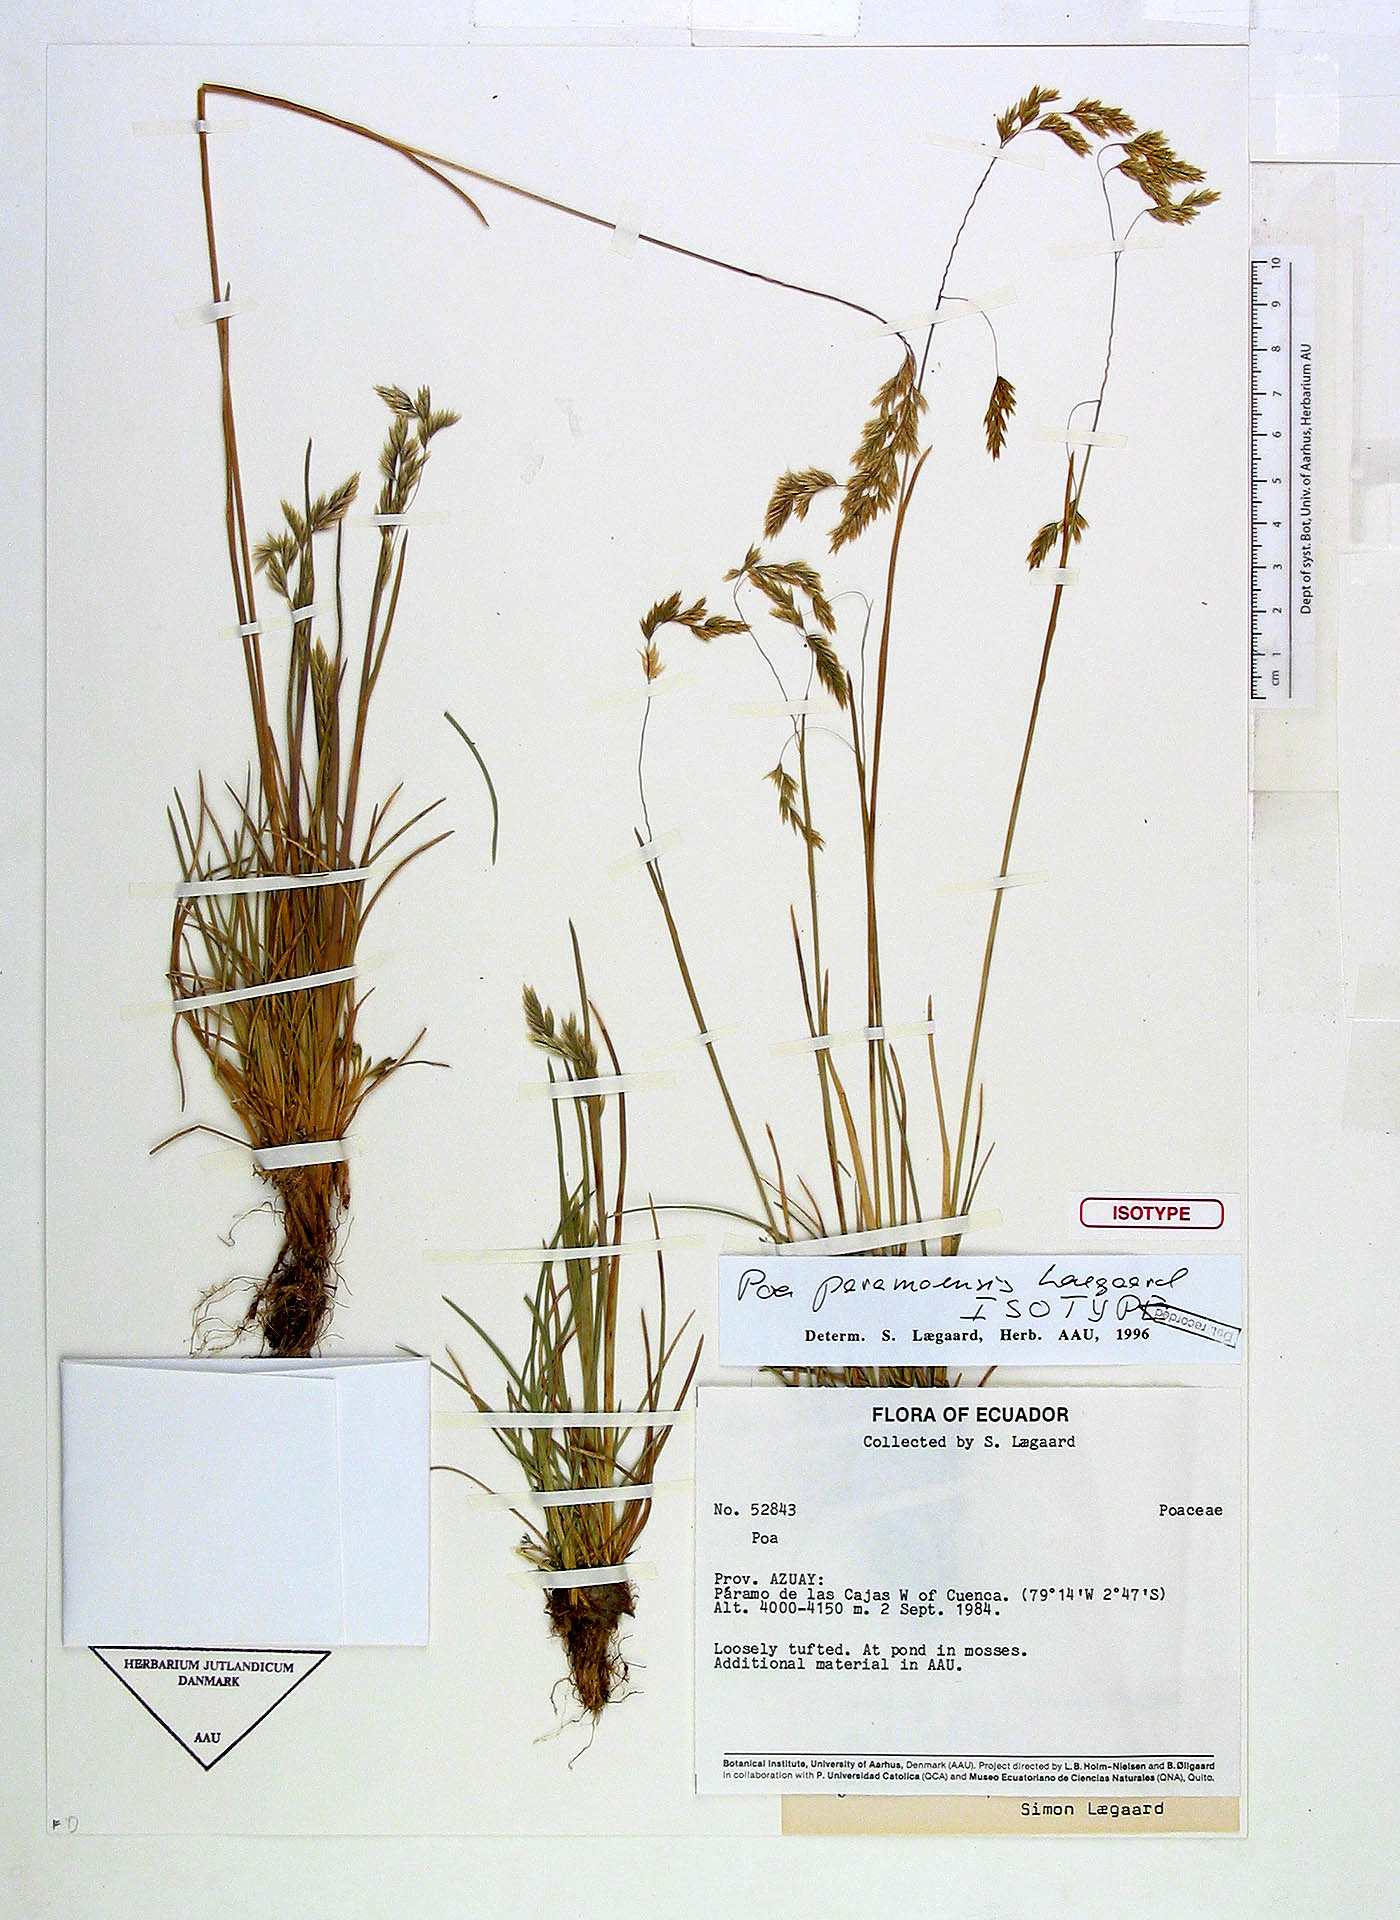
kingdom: Plantae
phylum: Tracheophyta
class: Liliopsida
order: Poales
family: Poaceae
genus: Poa
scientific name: Poa huancavelicae
